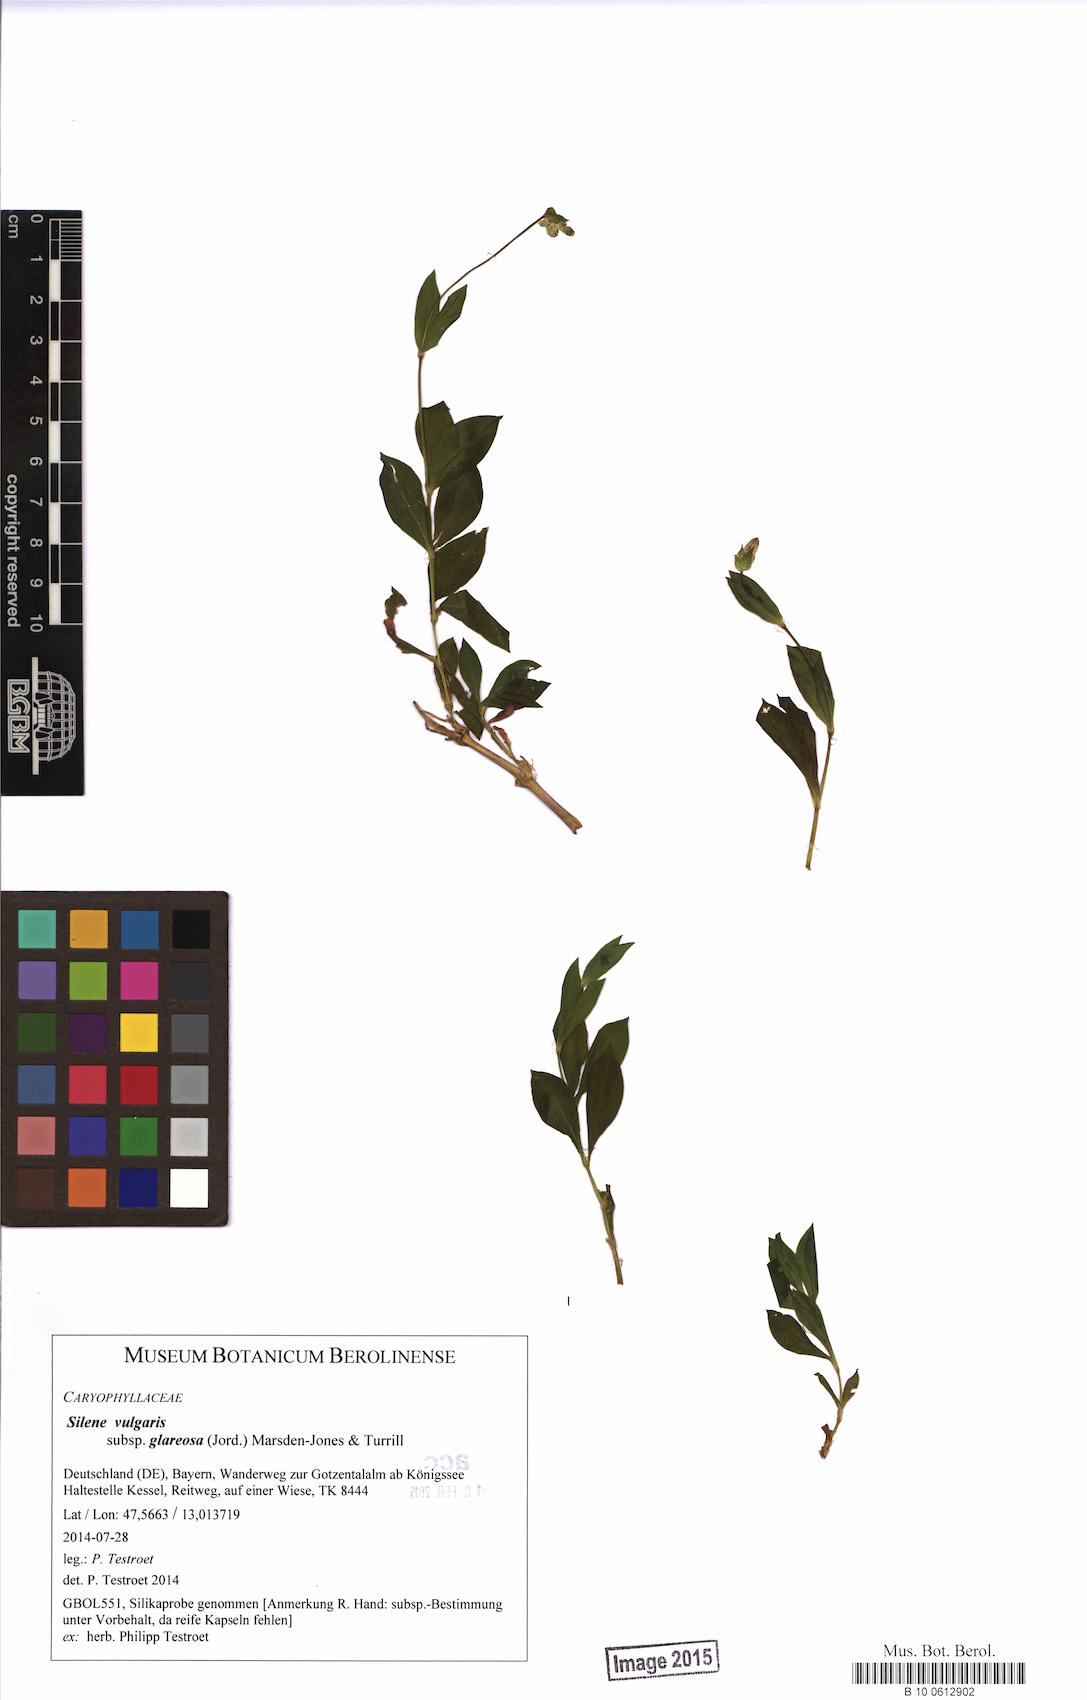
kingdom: Plantae
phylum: Tracheophyta
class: Magnoliopsida
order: Caryophyllales
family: Caryophyllaceae
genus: Silene
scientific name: Silene glareosa
